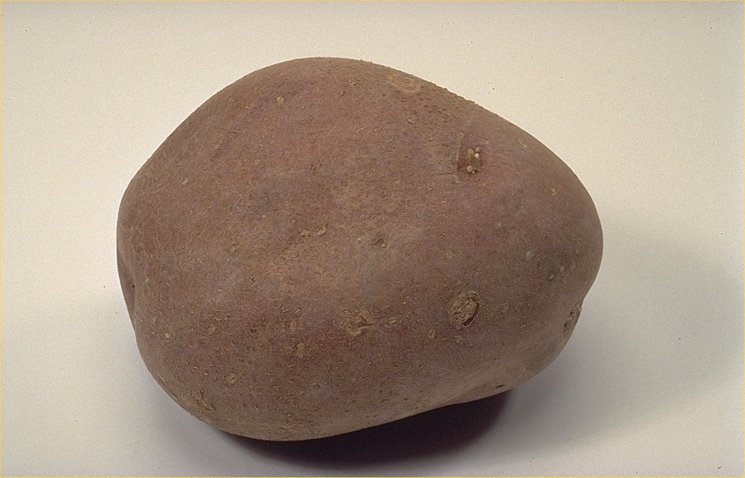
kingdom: Plantae
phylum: Tracheophyta
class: Magnoliopsida
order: Solanales
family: Solanaceae
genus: Solanum
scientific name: Solanum tuberosum
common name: Potato
